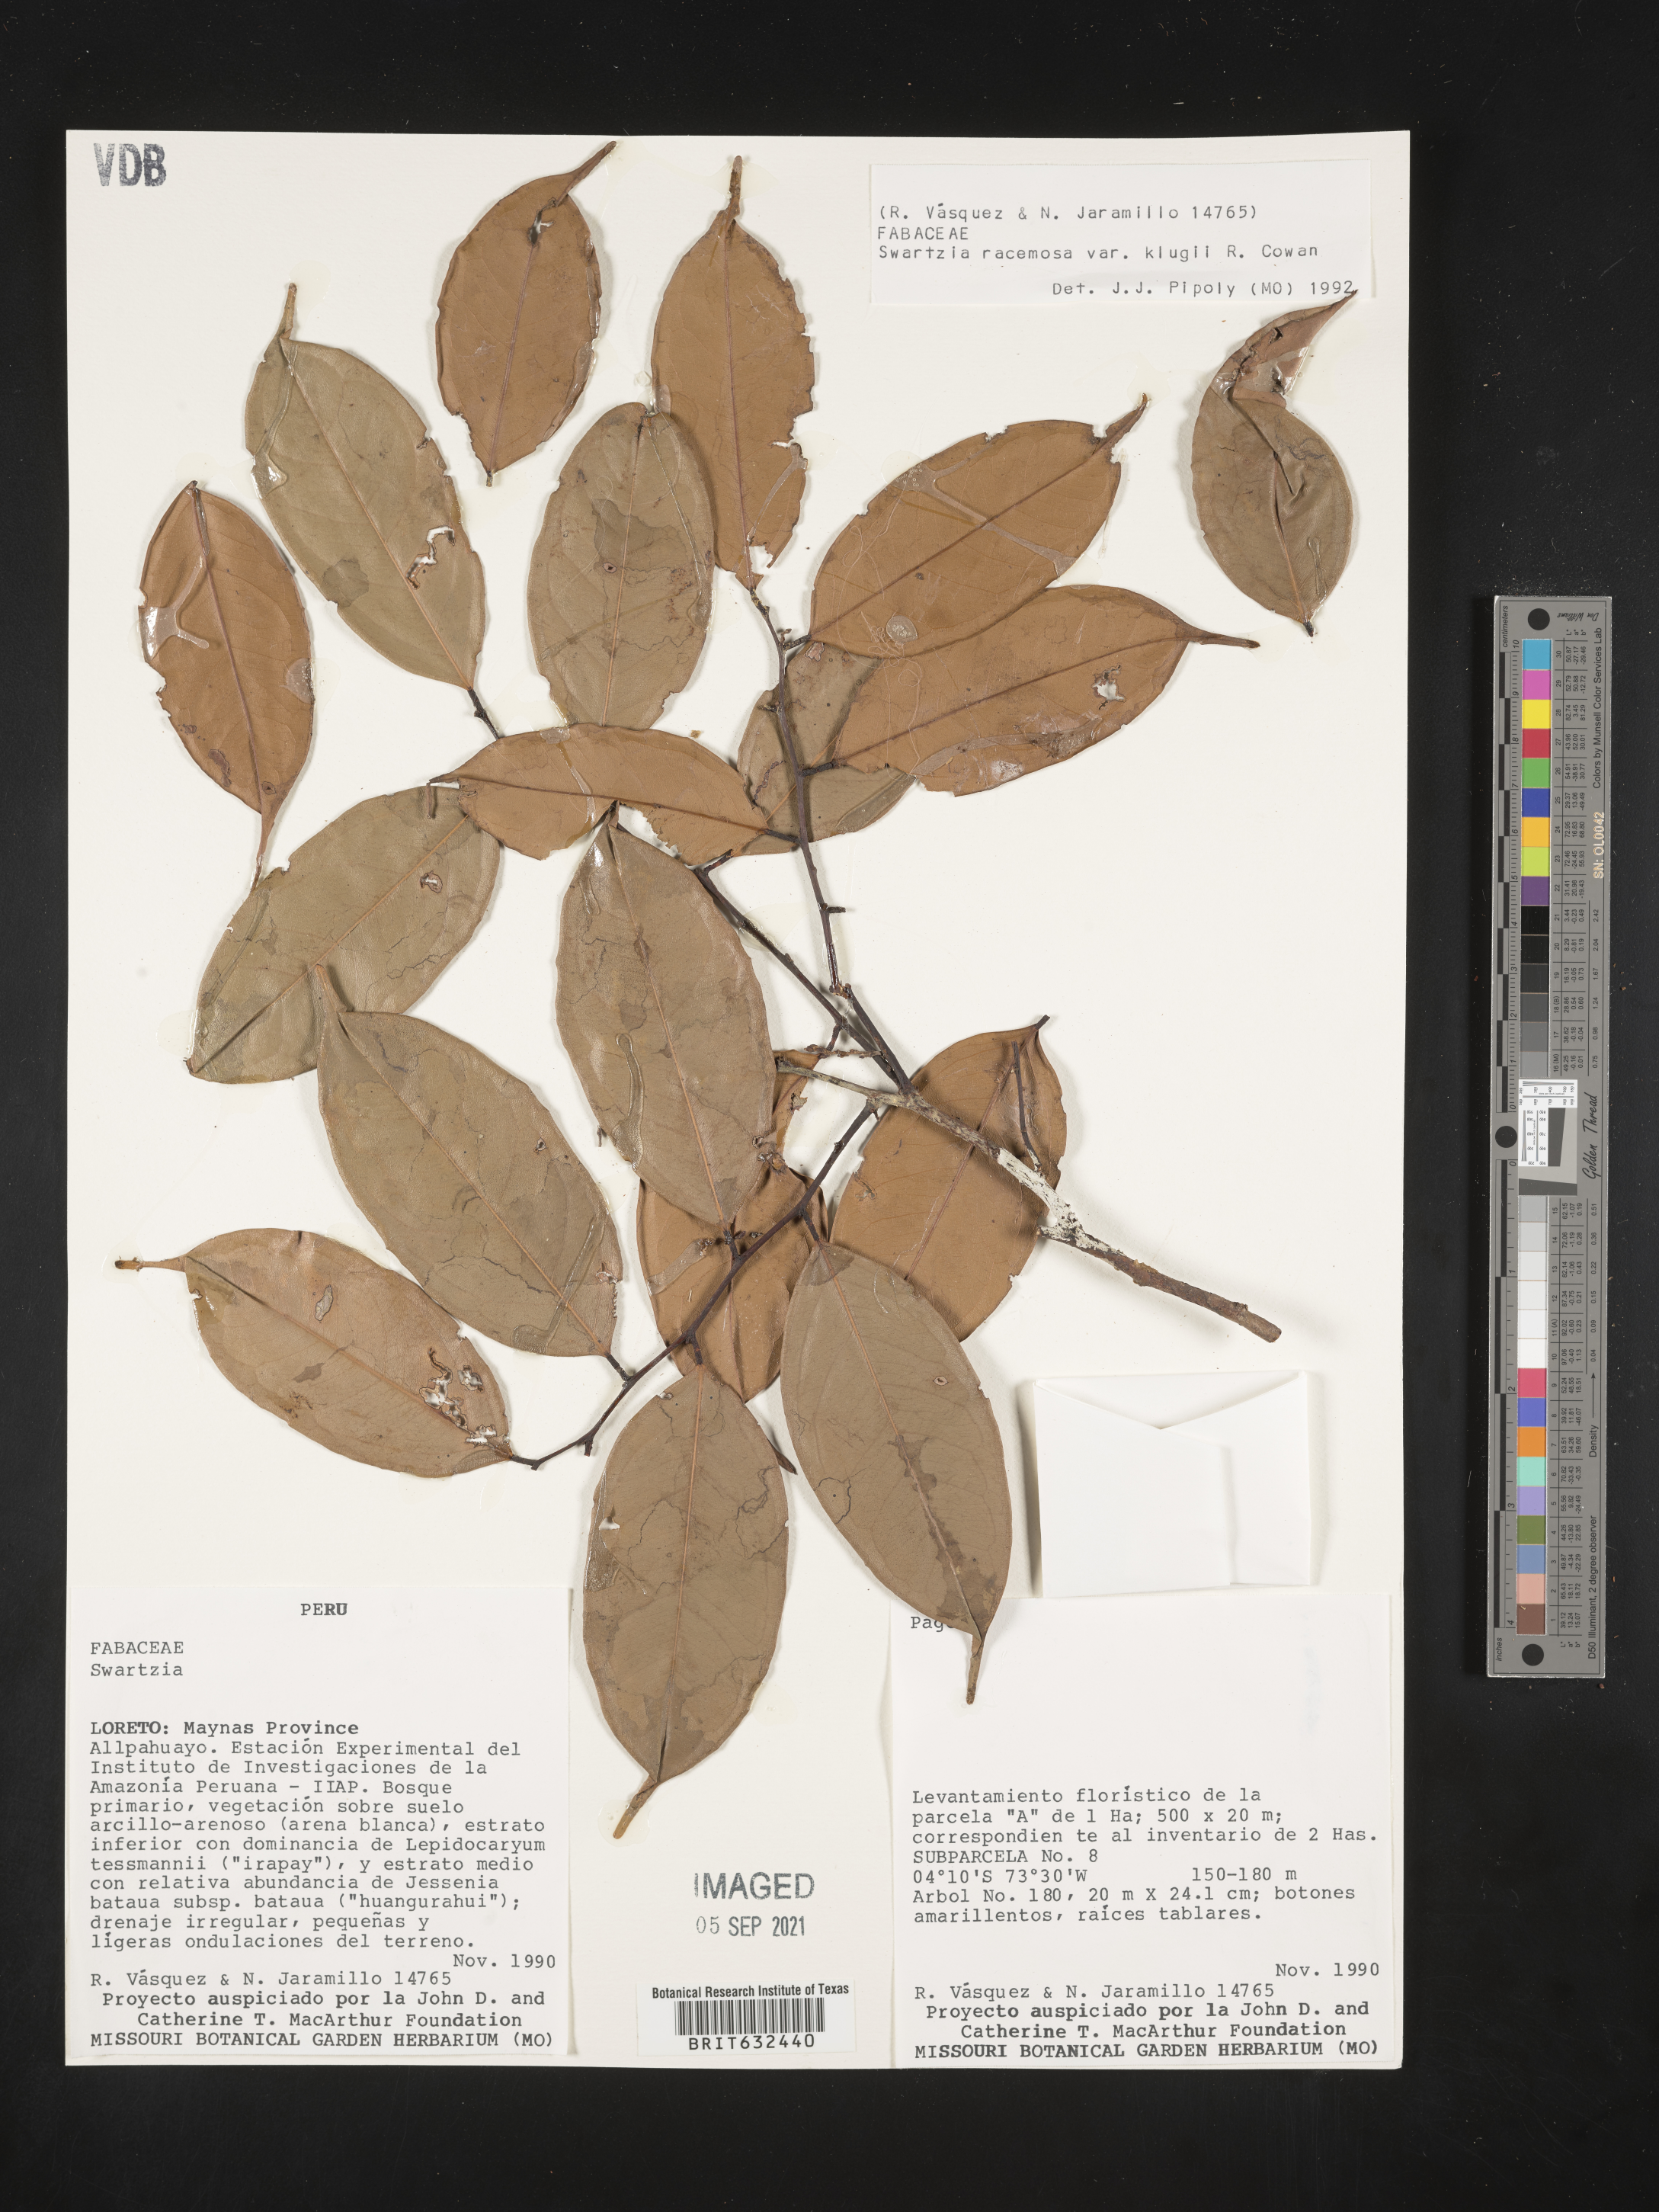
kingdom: Plantae
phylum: Tracheophyta
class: Magnoliopsida
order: Fabales
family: Fabaceae
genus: Swartzia
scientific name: Swartzia
